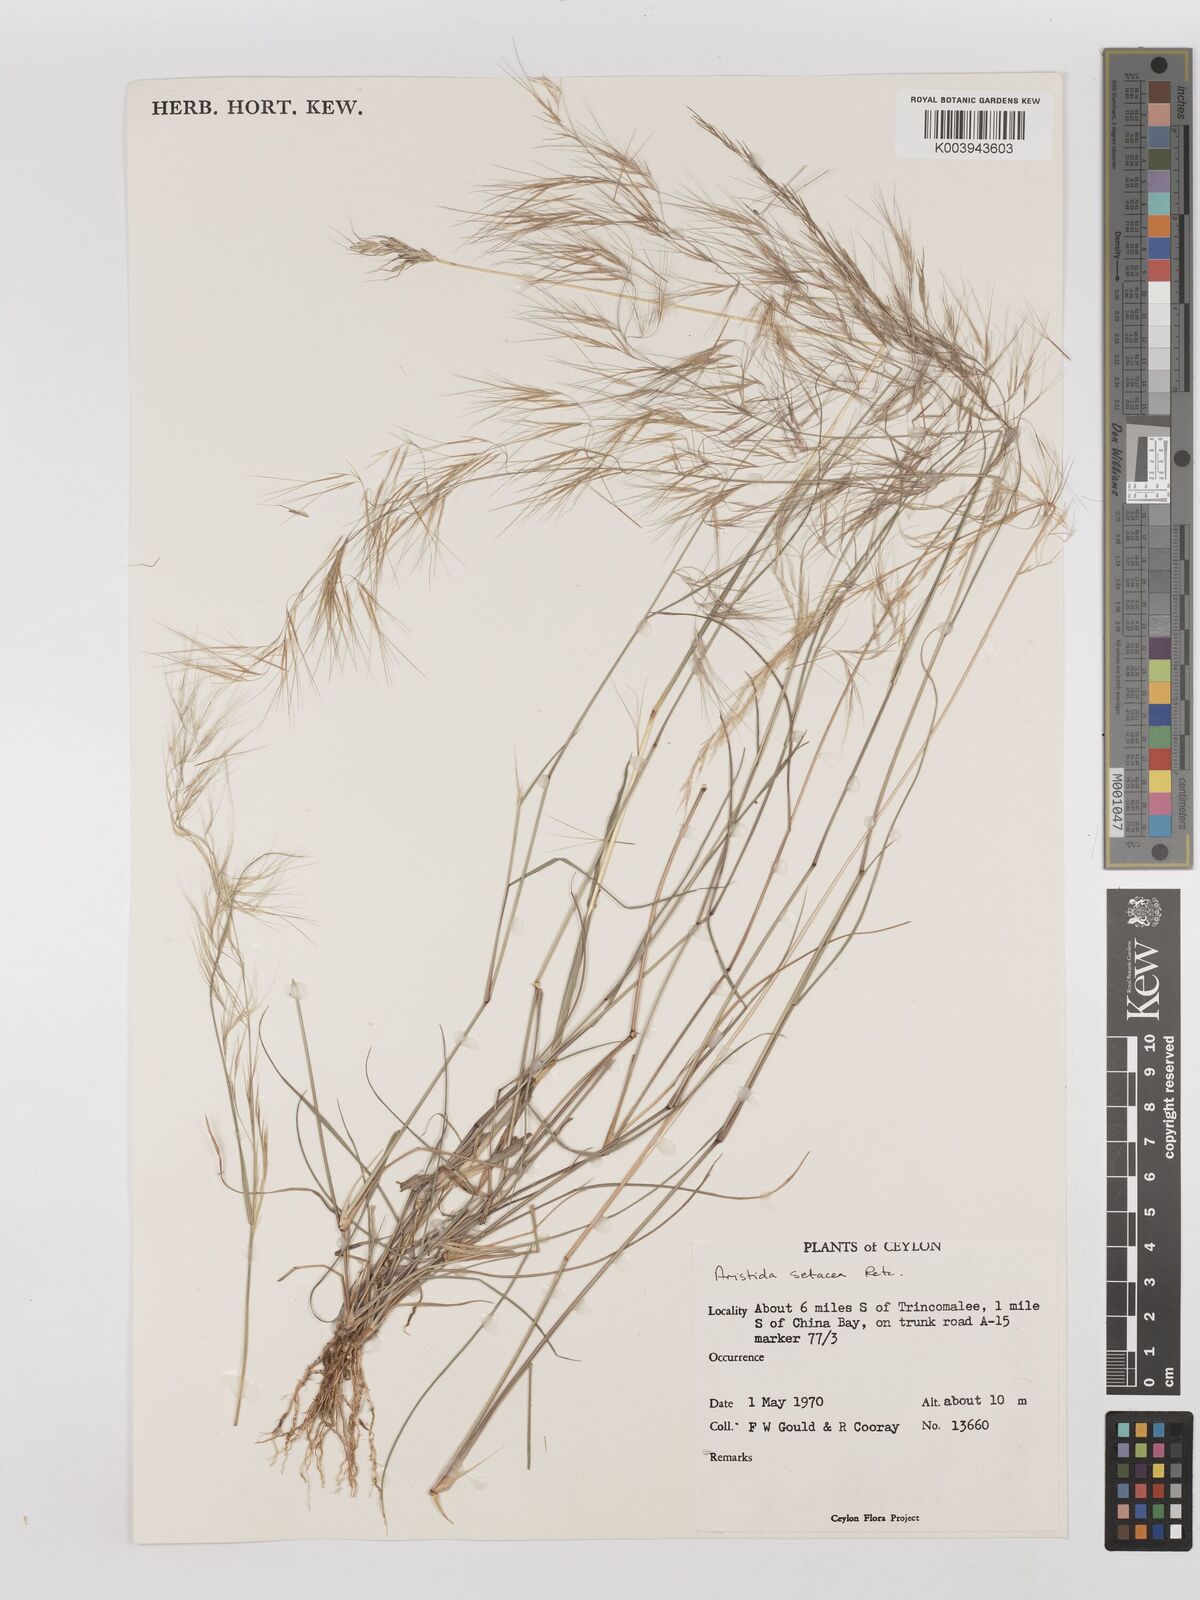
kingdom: Plantae
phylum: Tracheophyta
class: Liliopsida
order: Poales
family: Poaceae
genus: Aristida
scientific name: Aristida setacea
